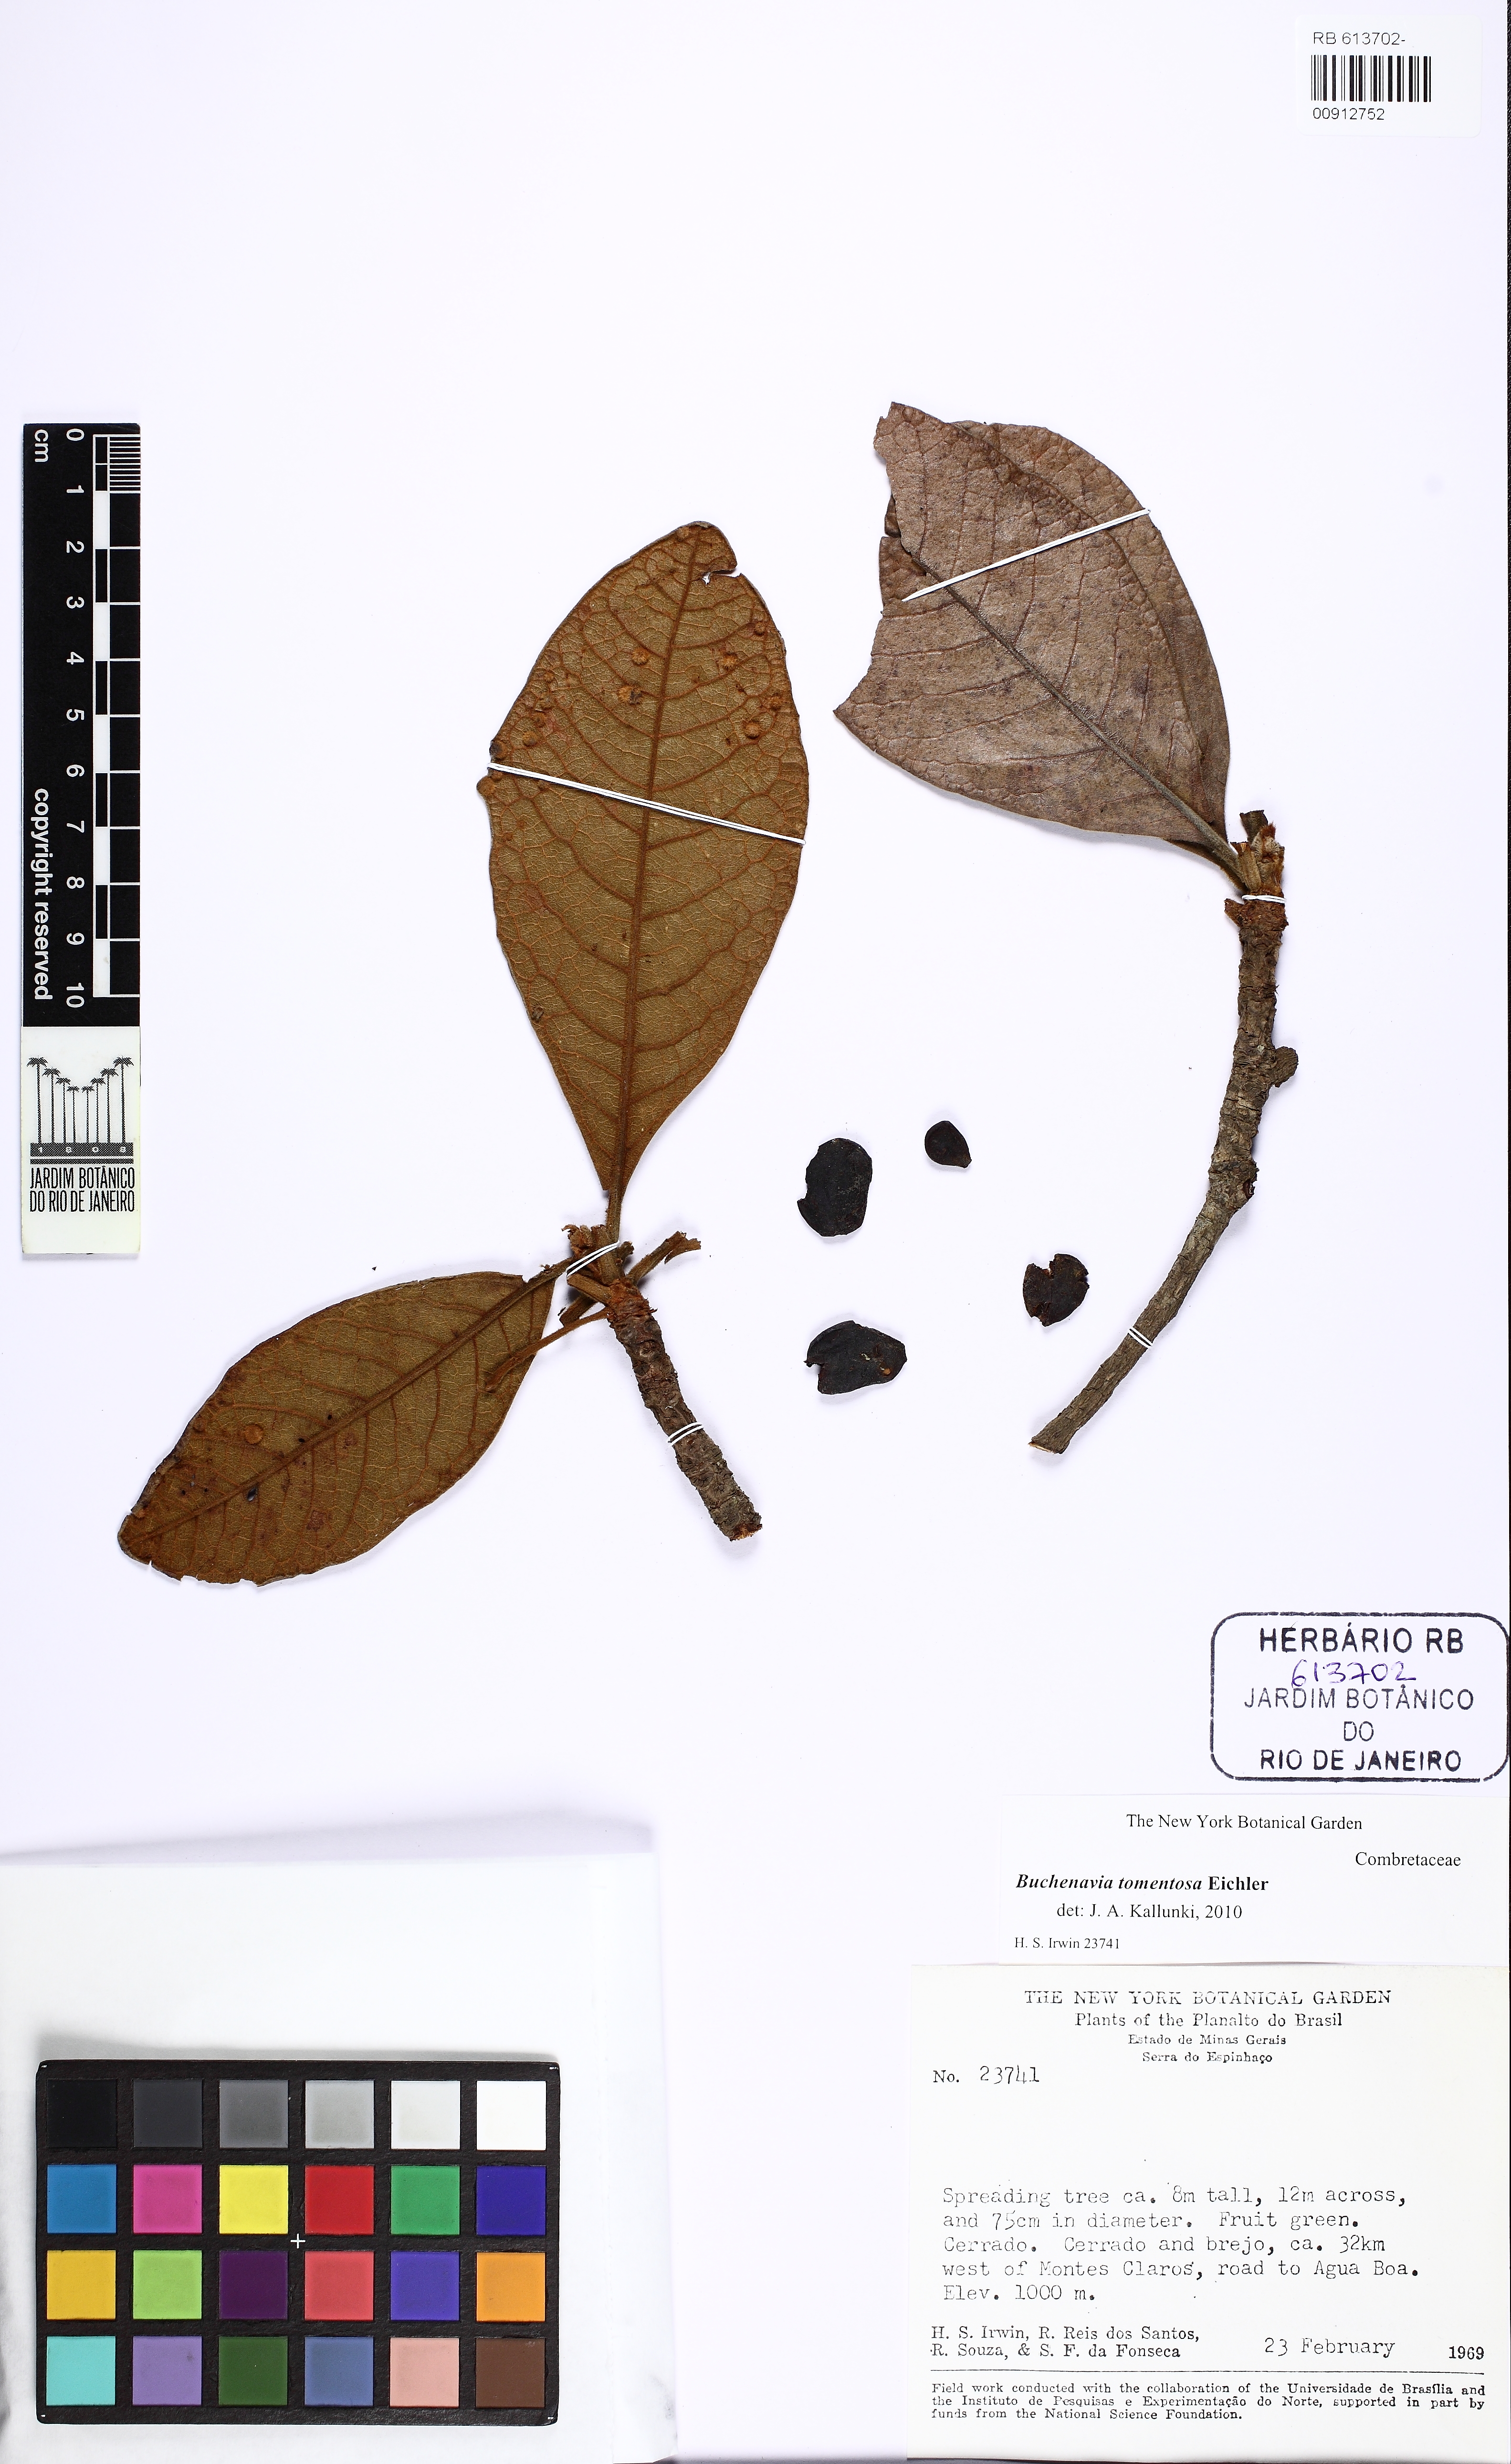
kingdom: Plantae
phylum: Tracheophyta
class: Magnoliopsida
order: Myrtales
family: Combretaceae
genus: Terminalia
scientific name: Terminalia corrugata
